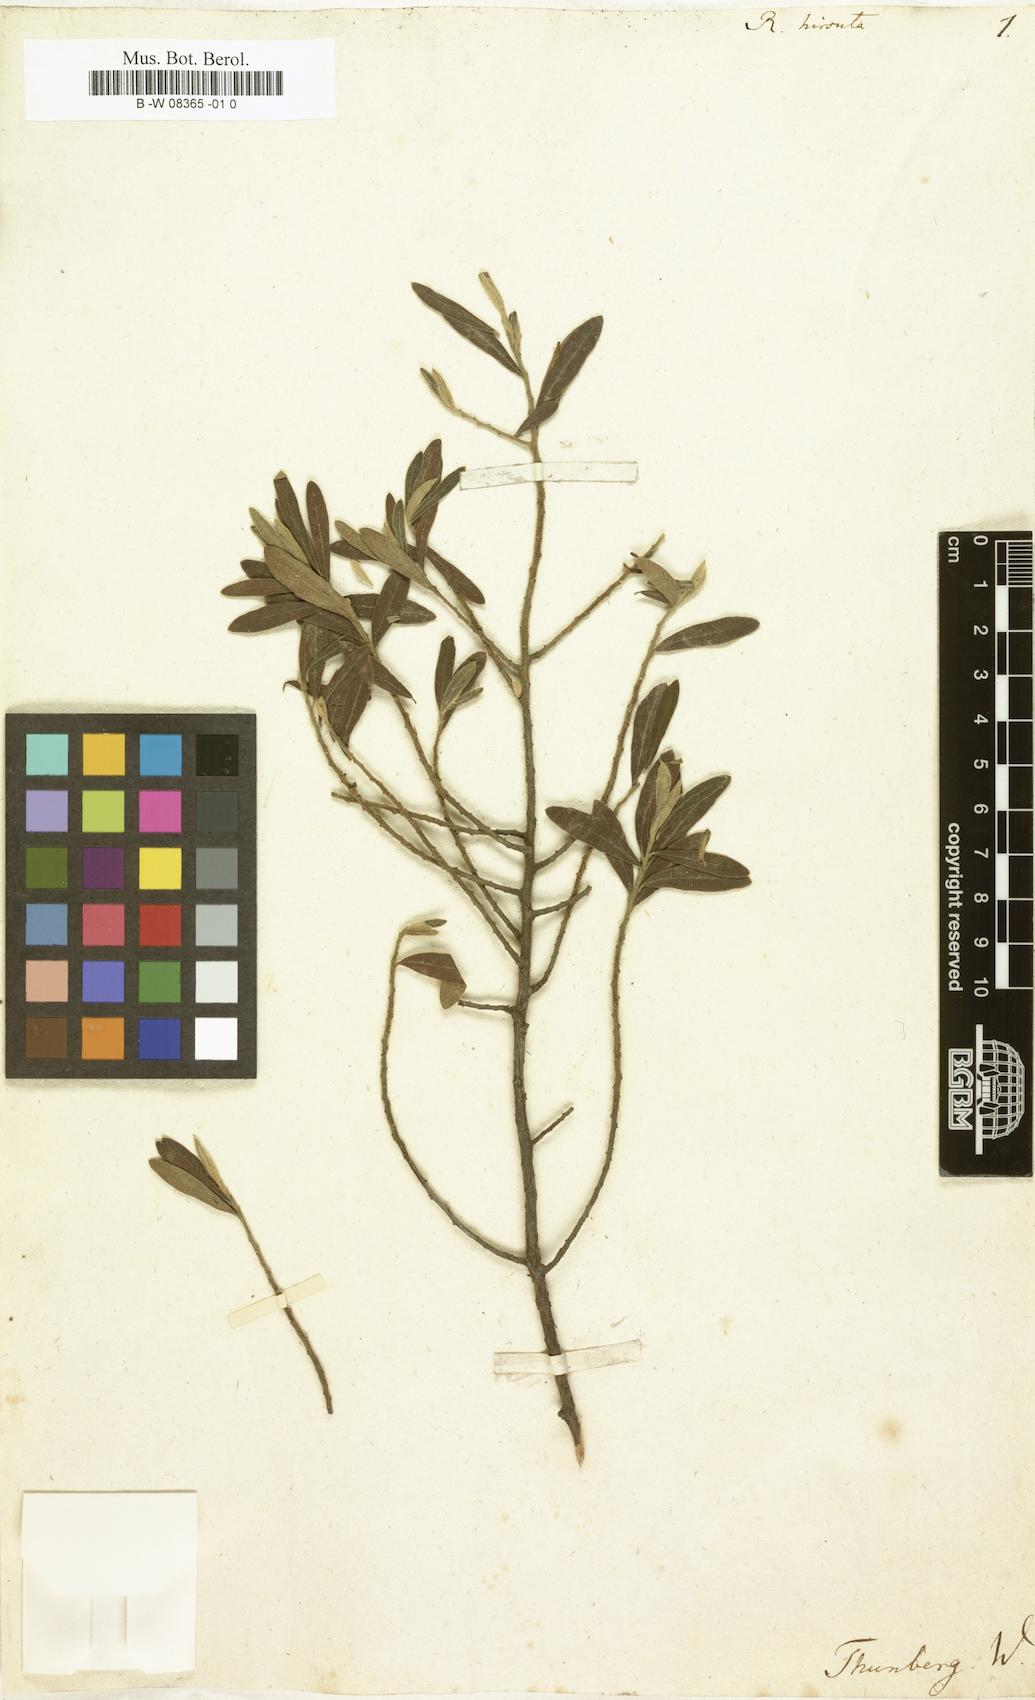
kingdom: Plantae
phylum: Tracheophyta
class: Magnoliopsida
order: Ericales
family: Ebenaceae
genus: Diospyros
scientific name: Diospyros
